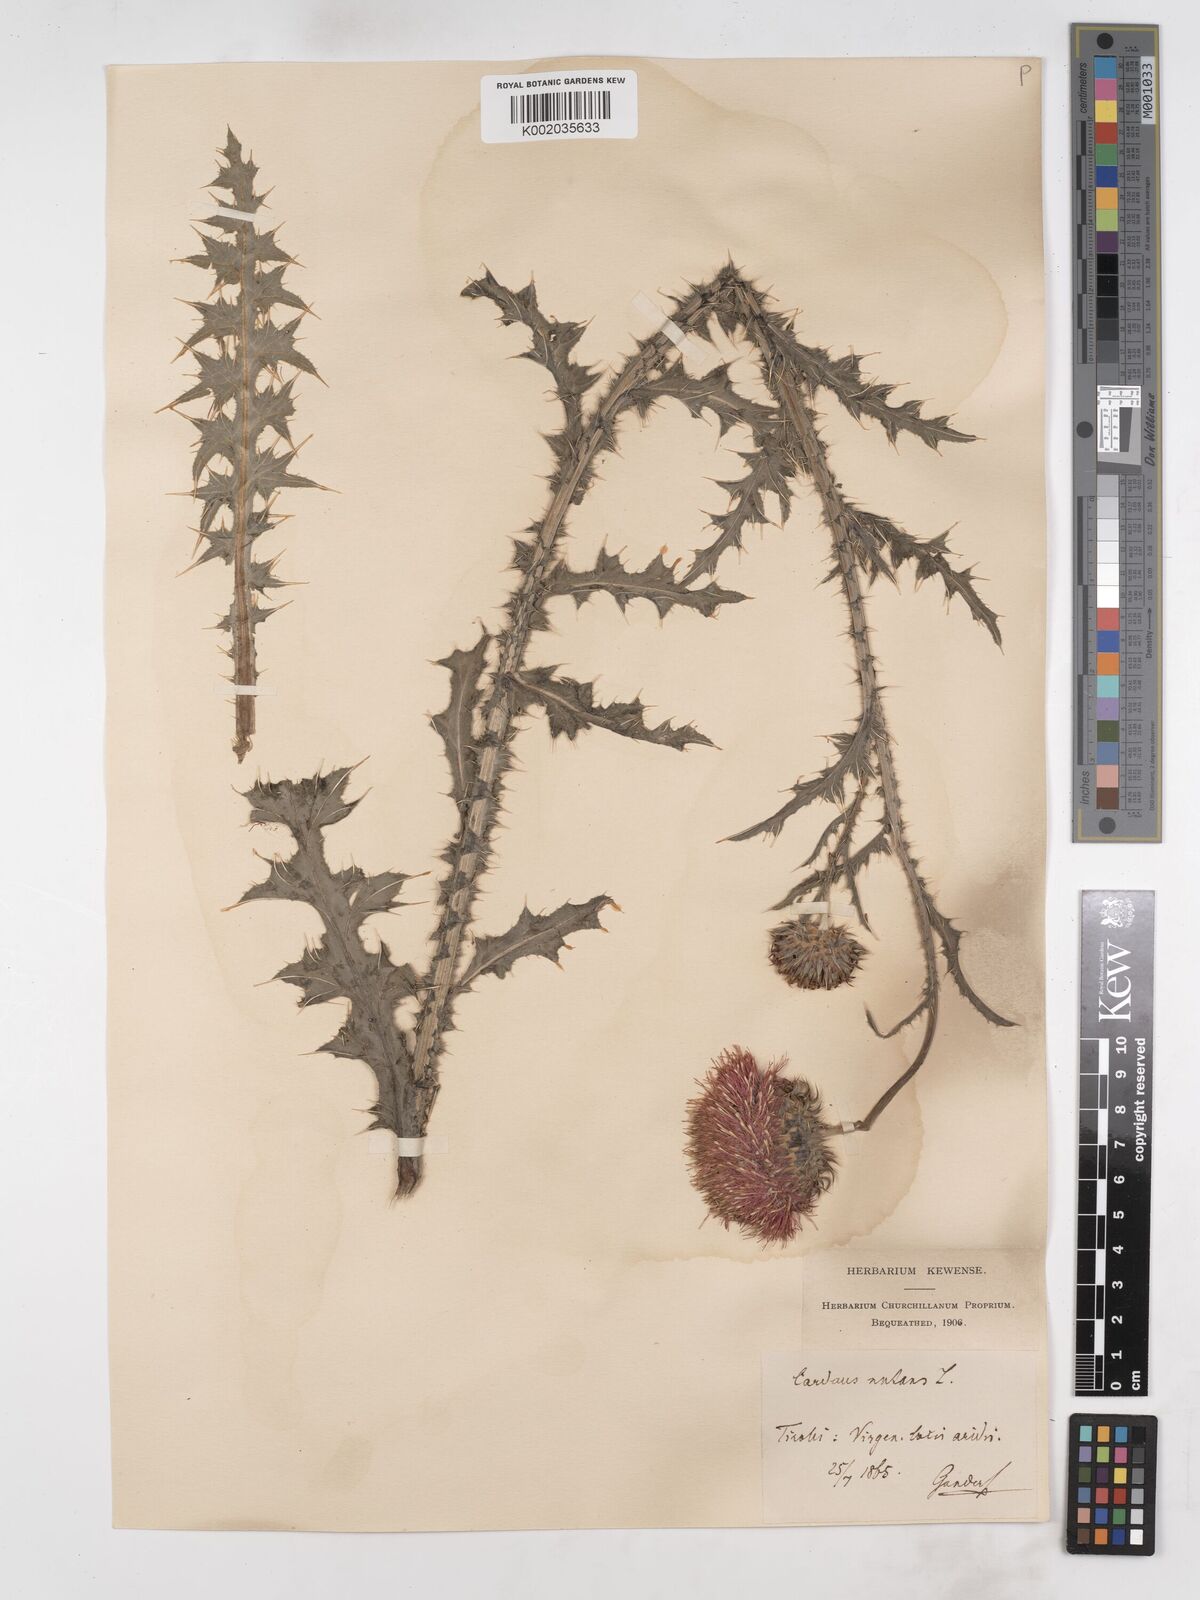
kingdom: Plantae
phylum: Tracheophyta
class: Magnoliopsida
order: Asterales
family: Asteraceae
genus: Carduus
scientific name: Carduus nutans
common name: Musk thistle
